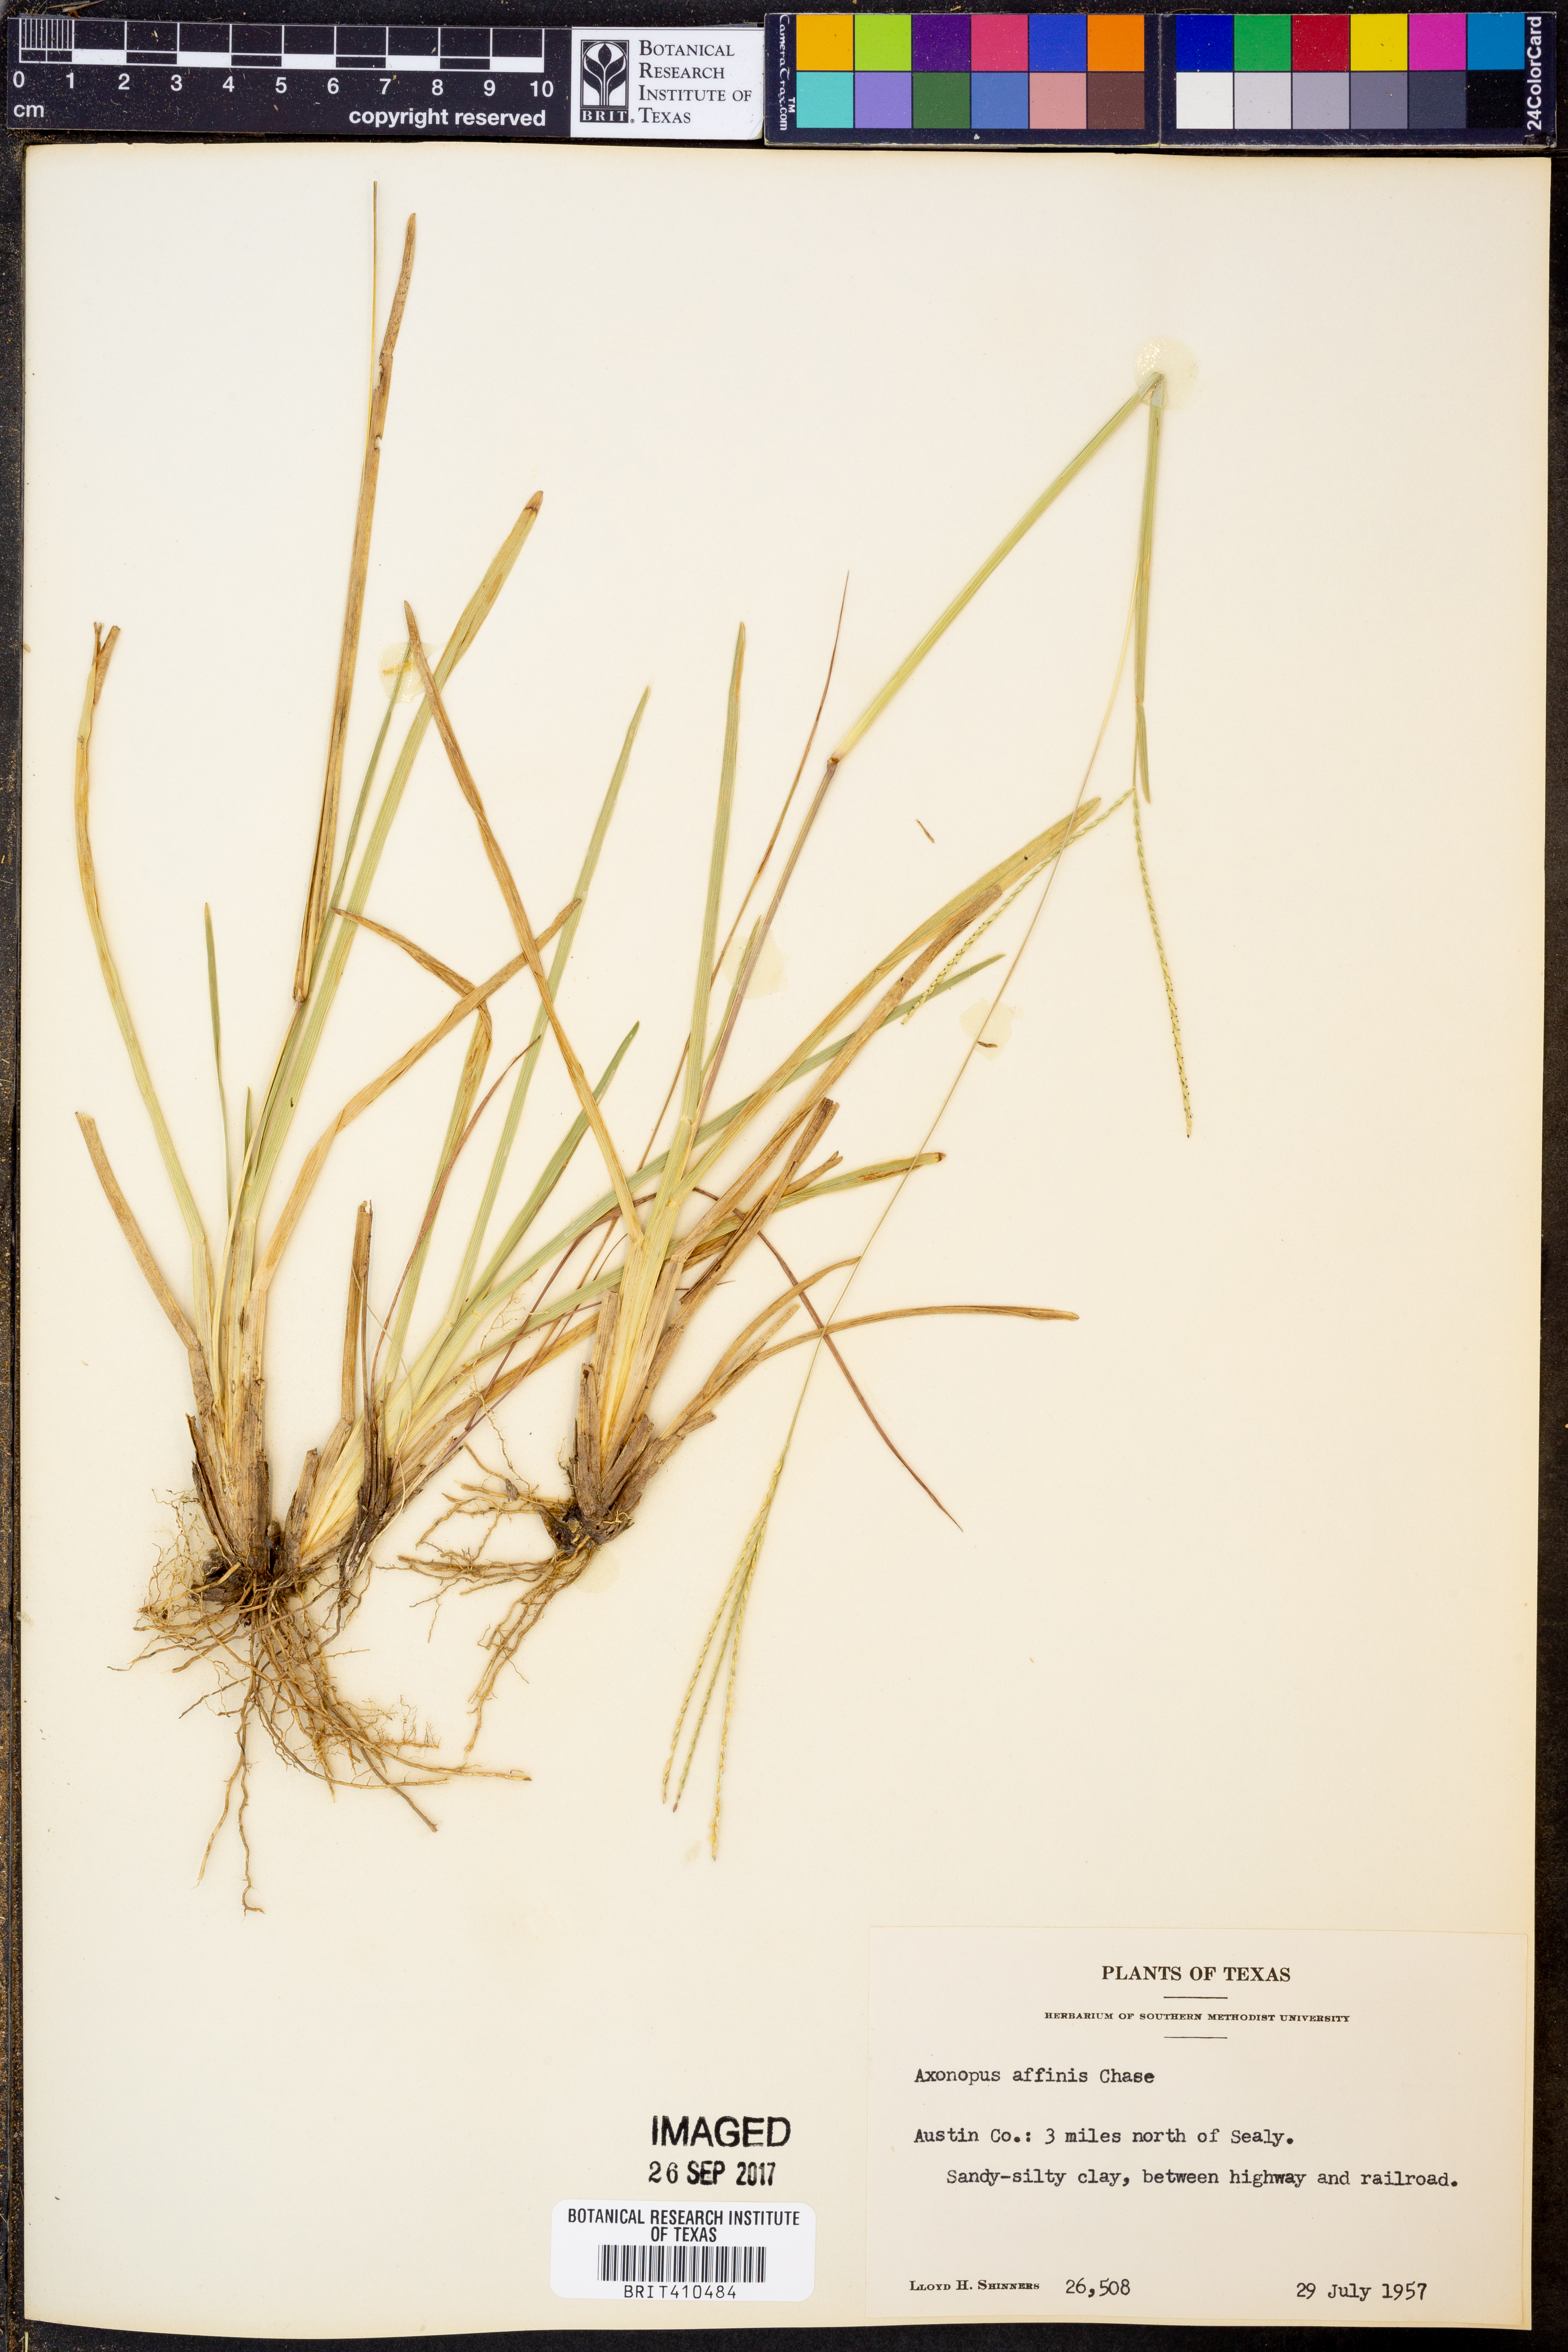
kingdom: Plantae
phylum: Tracheophyta
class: Liliopsida
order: Poales
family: Poaceae
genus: Axonopus
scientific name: Axonopus fissifolius
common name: Common carpetgrass
